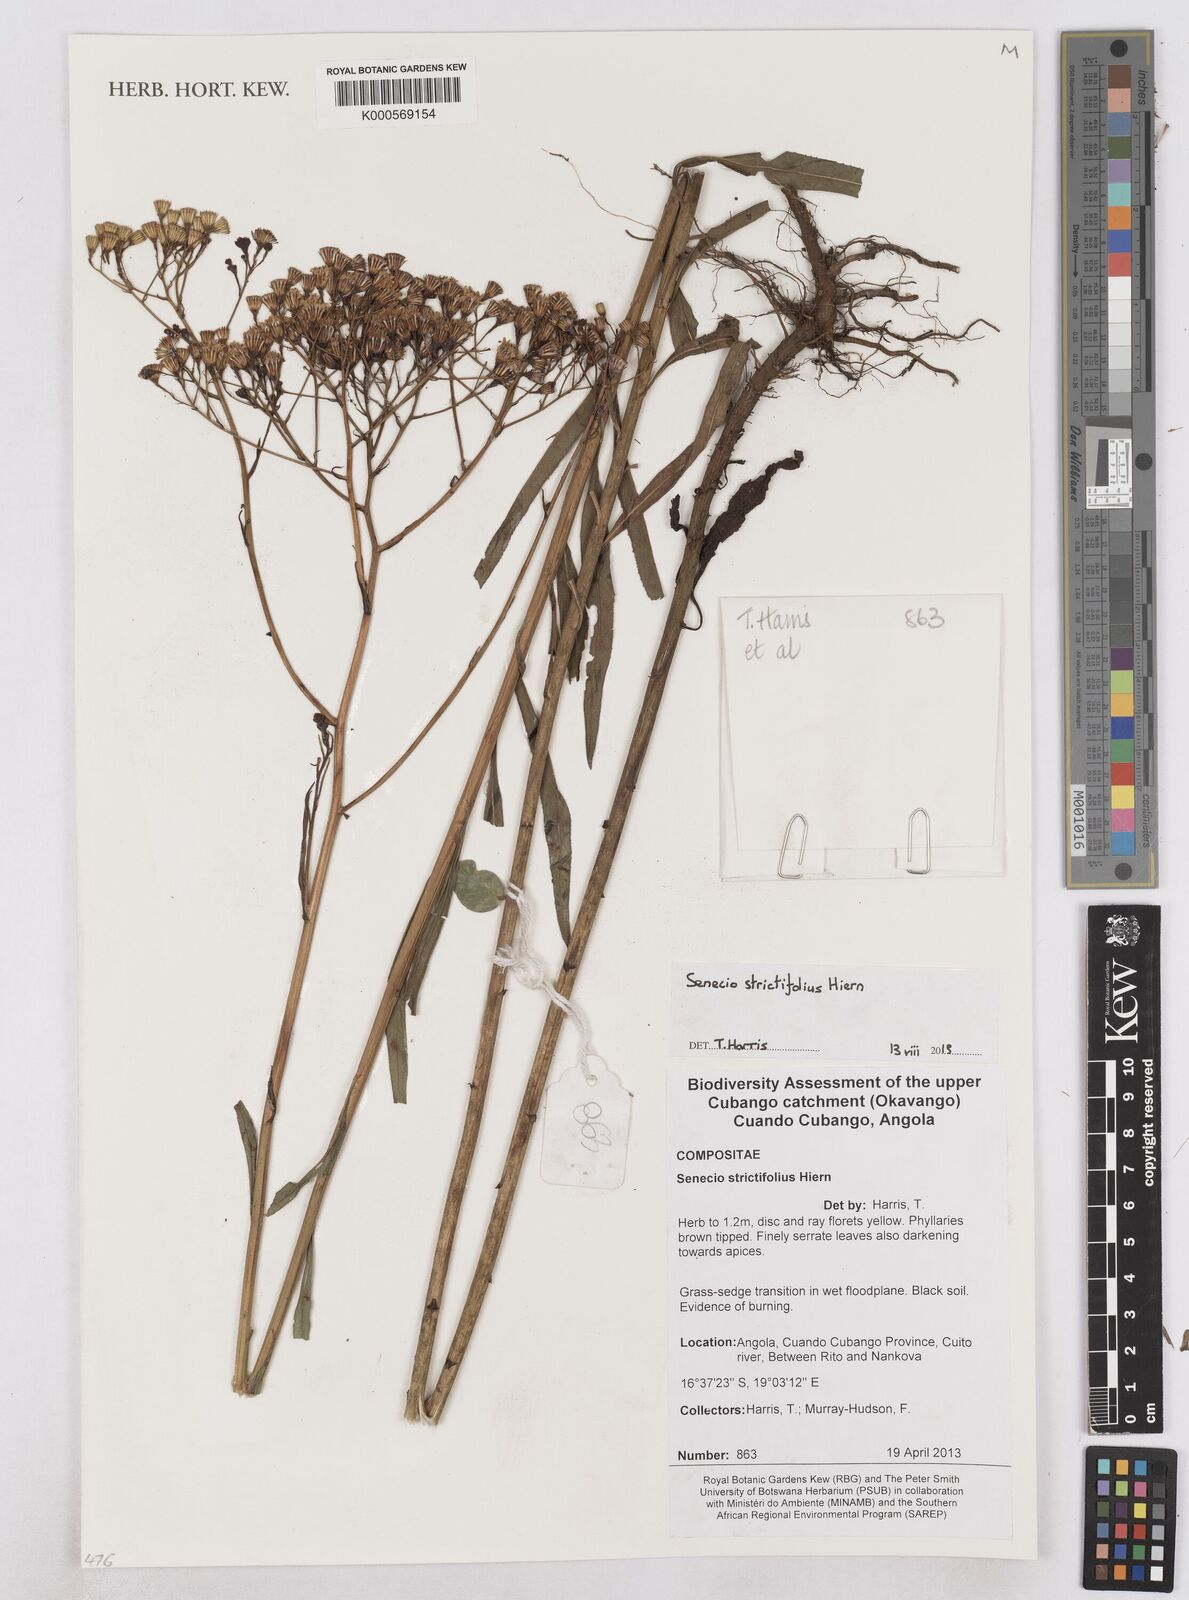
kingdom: Plantae
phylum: Tracheophyta
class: Magnoliopsida
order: Asterales
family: Asteraceae
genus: Senecio
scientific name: Senecio strictifolius
